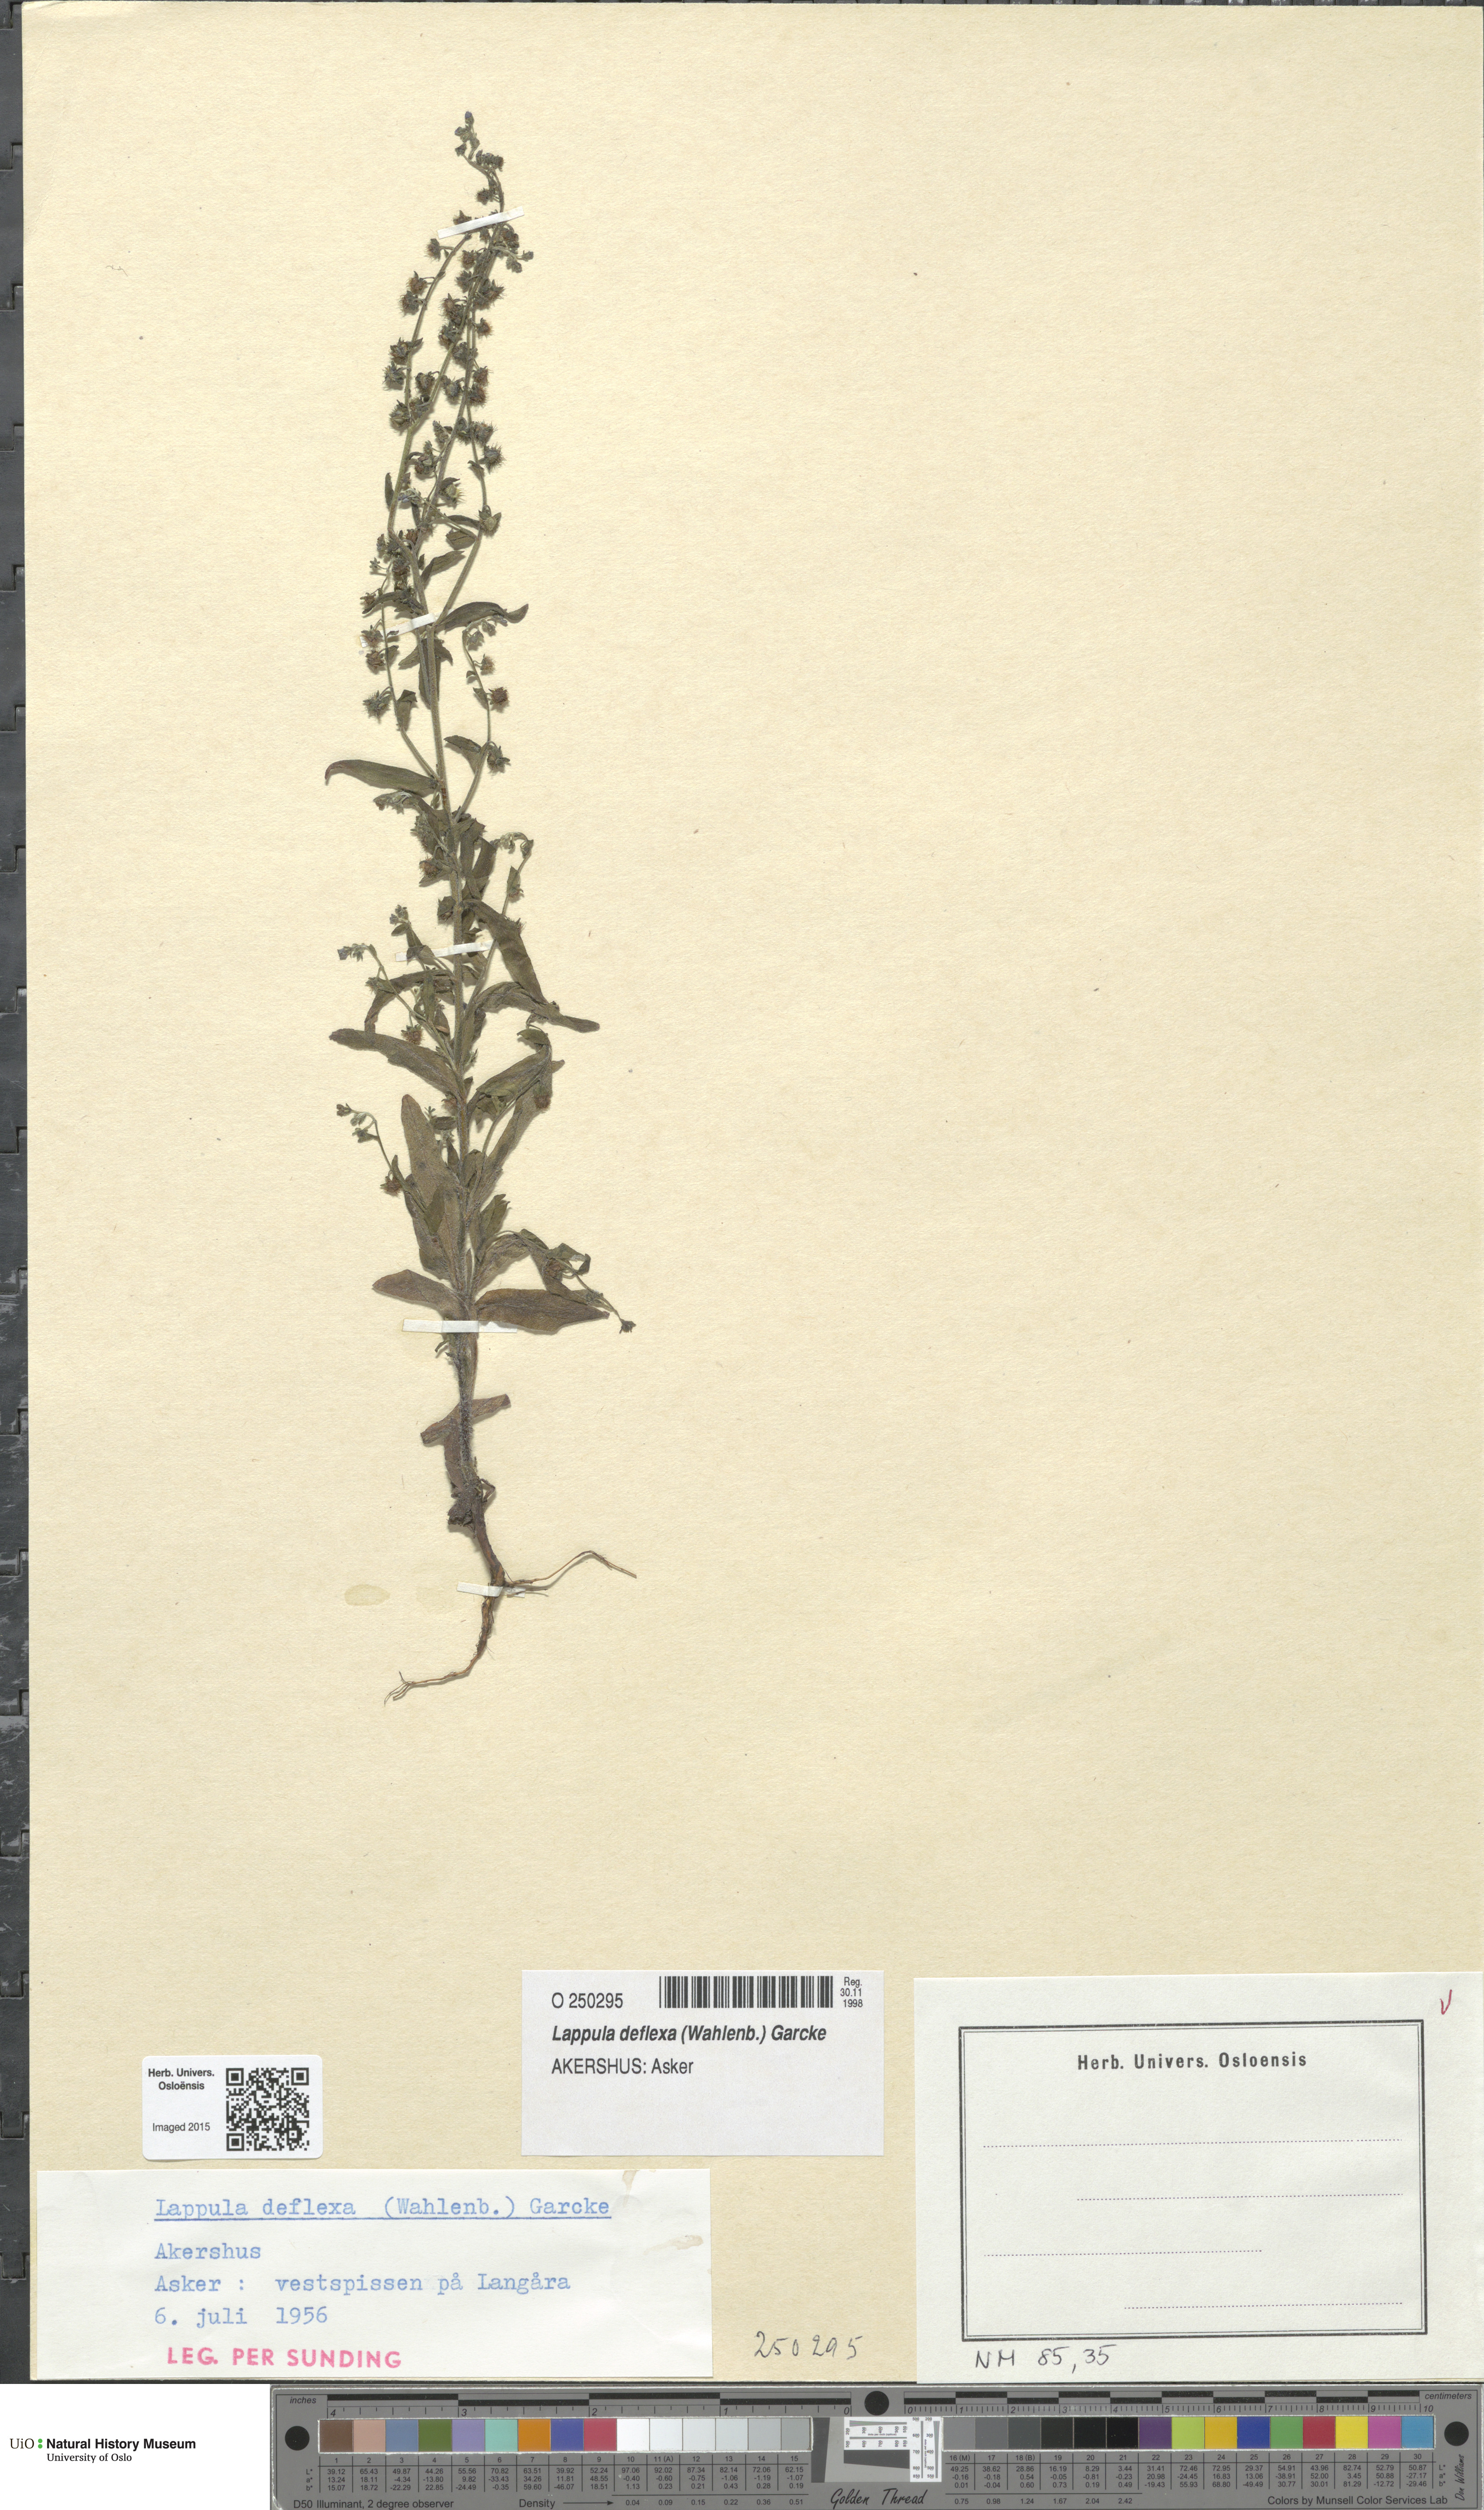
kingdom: Plantae
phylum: Tracheophyta
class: Magnoliopsida
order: Boraginales
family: Boraginaceae
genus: Hackelia
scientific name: Hackelia deflexa
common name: Nodding stickseed
